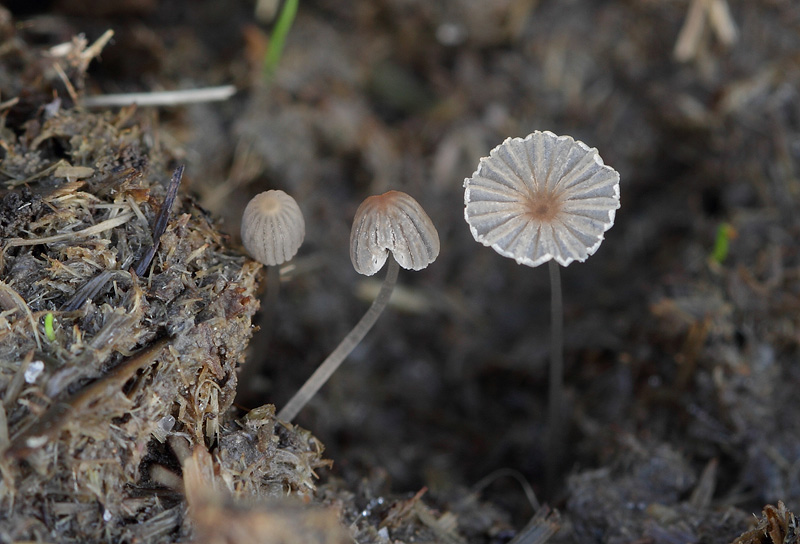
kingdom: Fungi
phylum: Basidiomycota
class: Agaricomycetes
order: Agaricales
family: Psathyrellaceae
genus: Parasola
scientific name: Parasola misera
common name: lillebitte hjulhat
